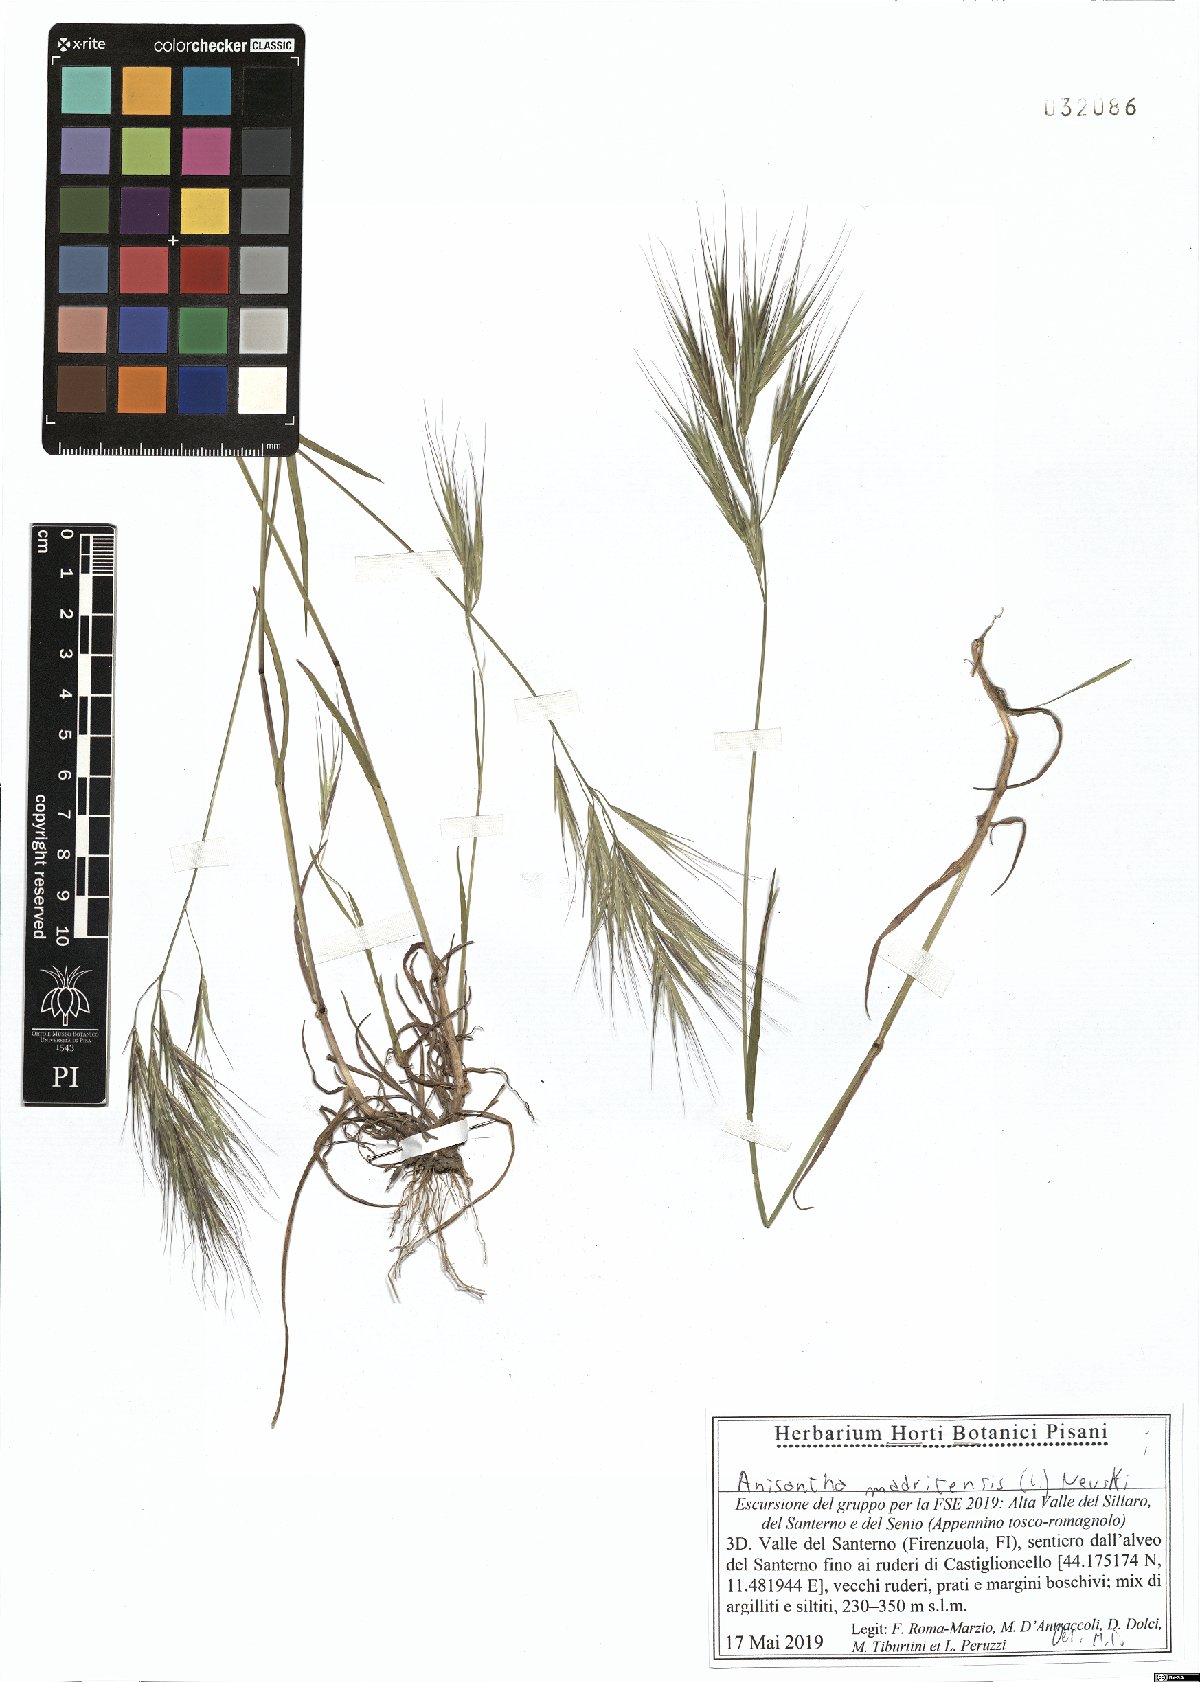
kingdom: Plantae
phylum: Tracheophyta
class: Liliopsida
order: Poales
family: Poaceae
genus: Bromus
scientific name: Bromus madritensis
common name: Compact brome
